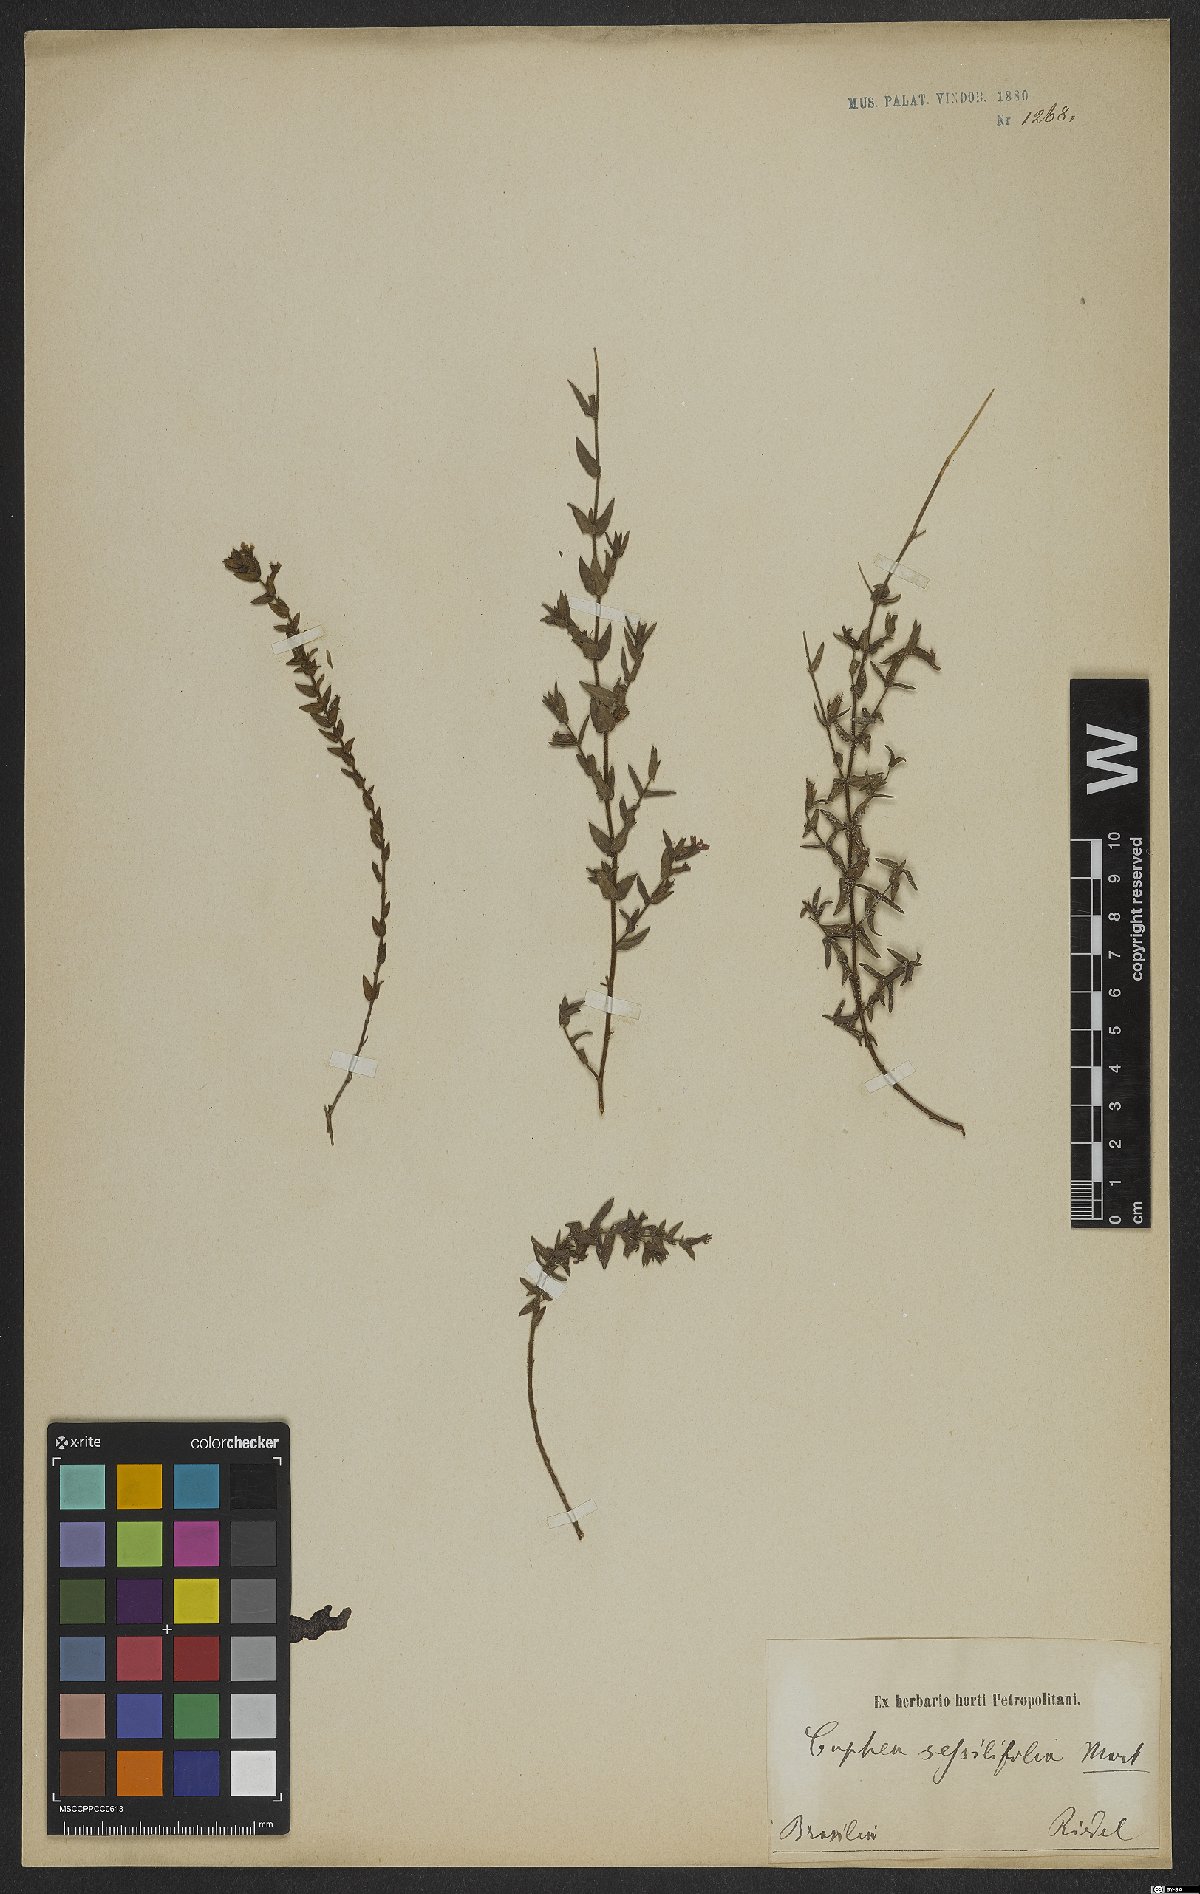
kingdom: Plantae
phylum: Tracheophyta
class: Magnoliopsida
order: Myrtales
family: Lythraceae
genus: Cuphea
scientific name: Cuphea sessilifolia
